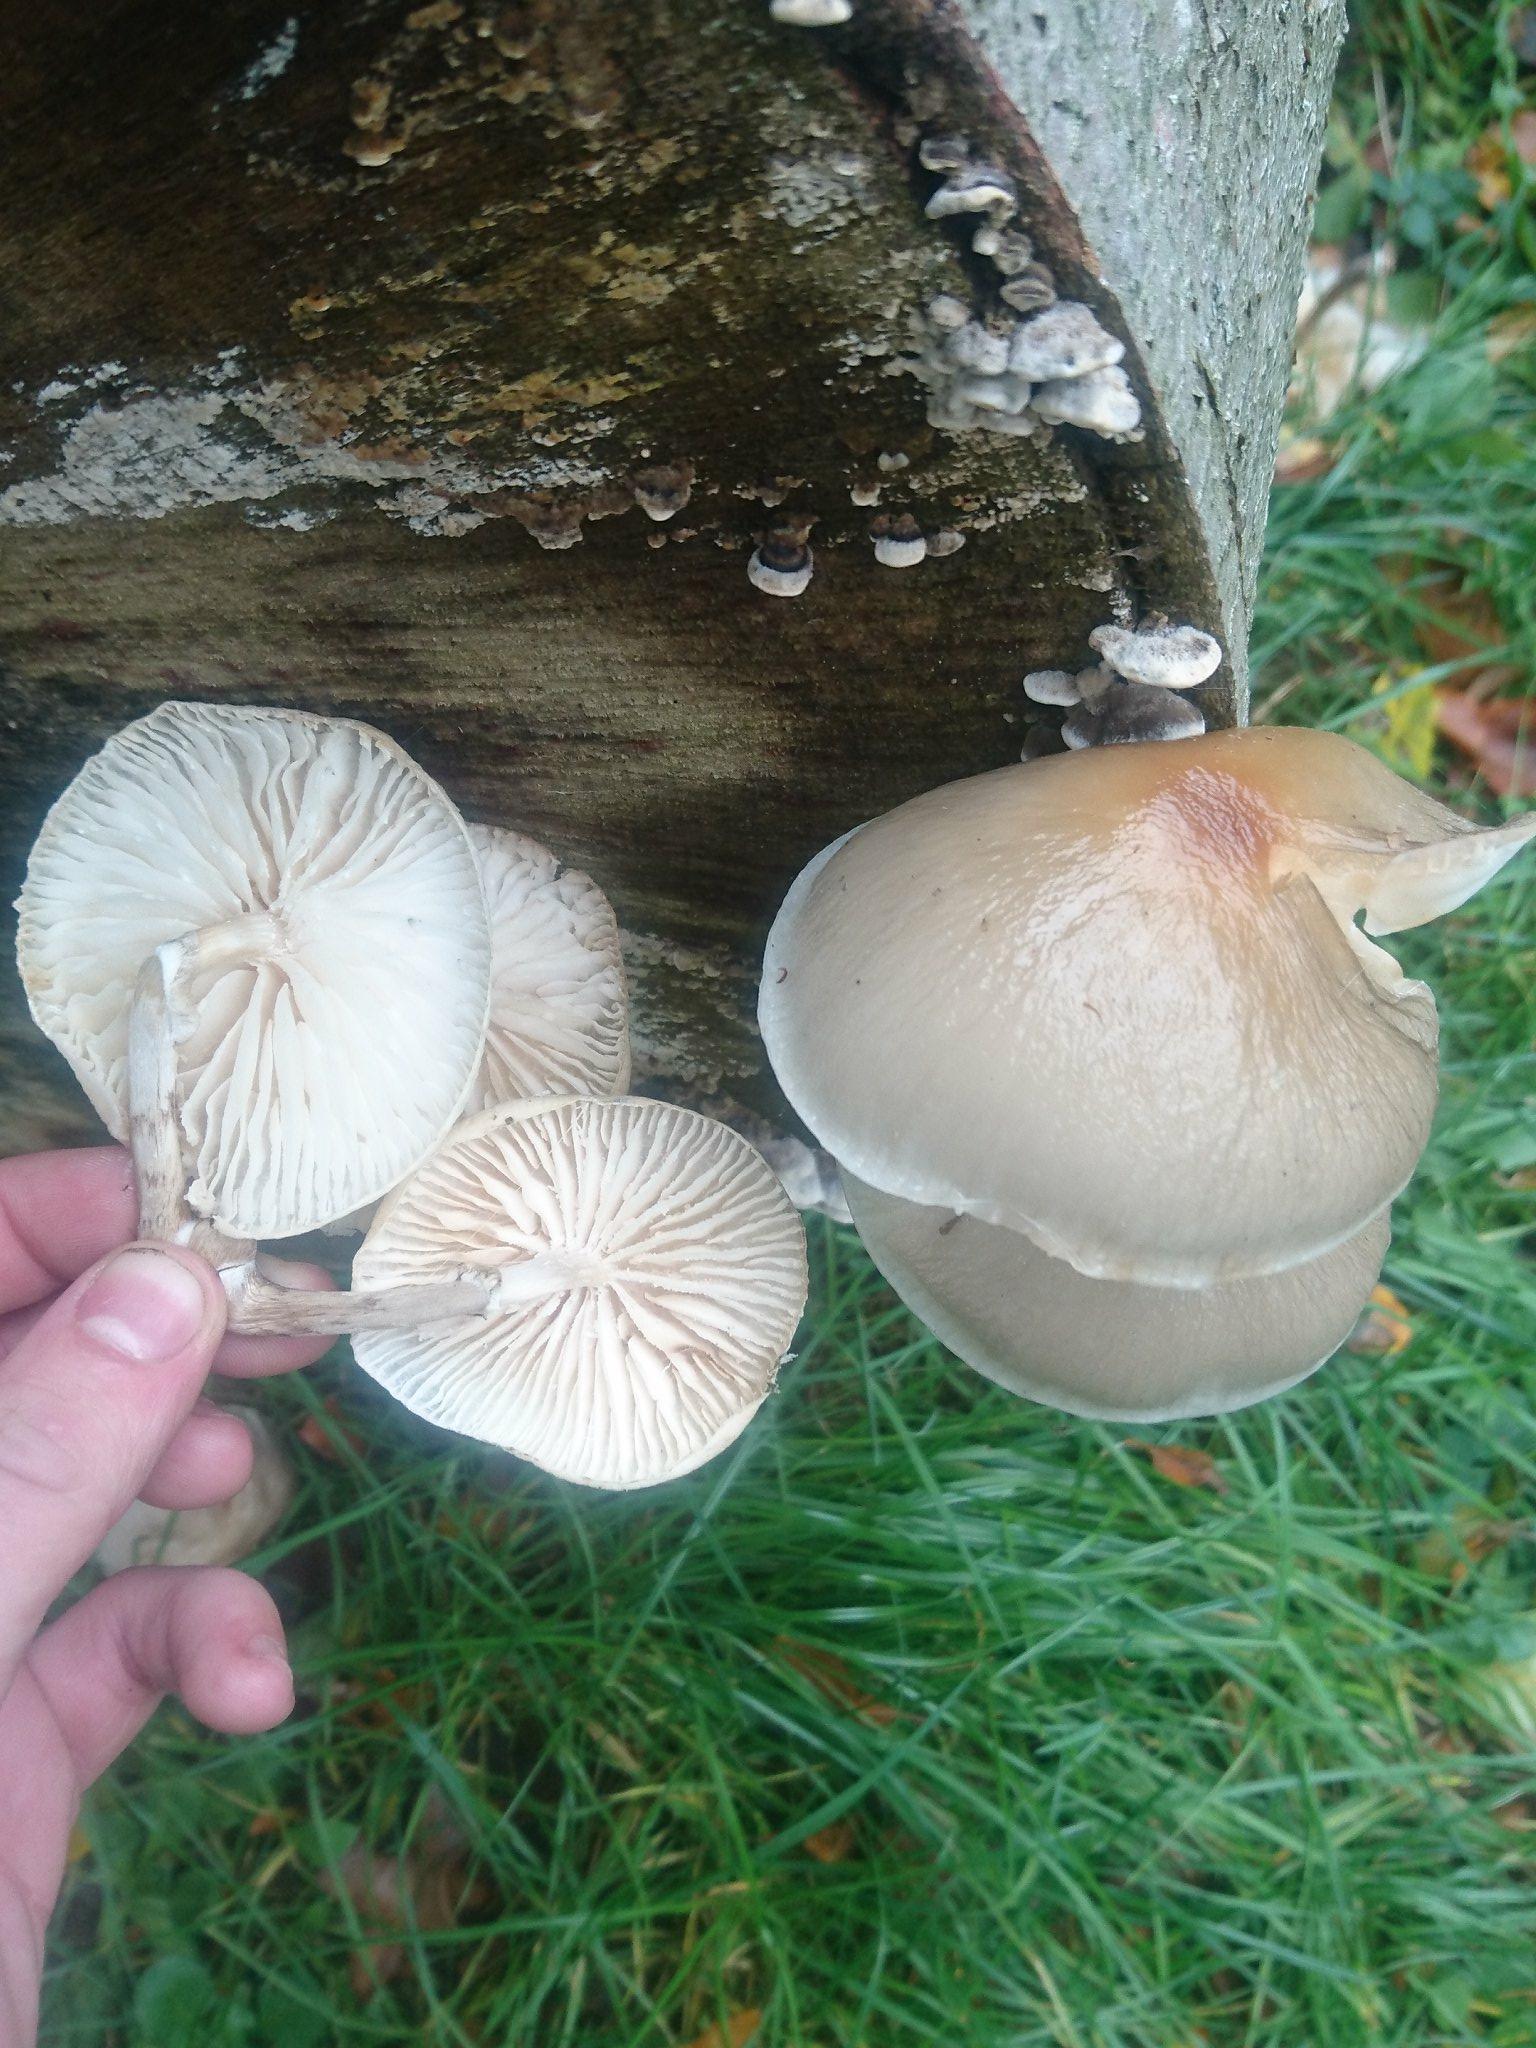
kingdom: Fungi
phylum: Basidiomycota
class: Agaricomycetes
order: Agaricales
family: Physalacriaceae
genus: Mucidula
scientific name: Mucidula mucida
